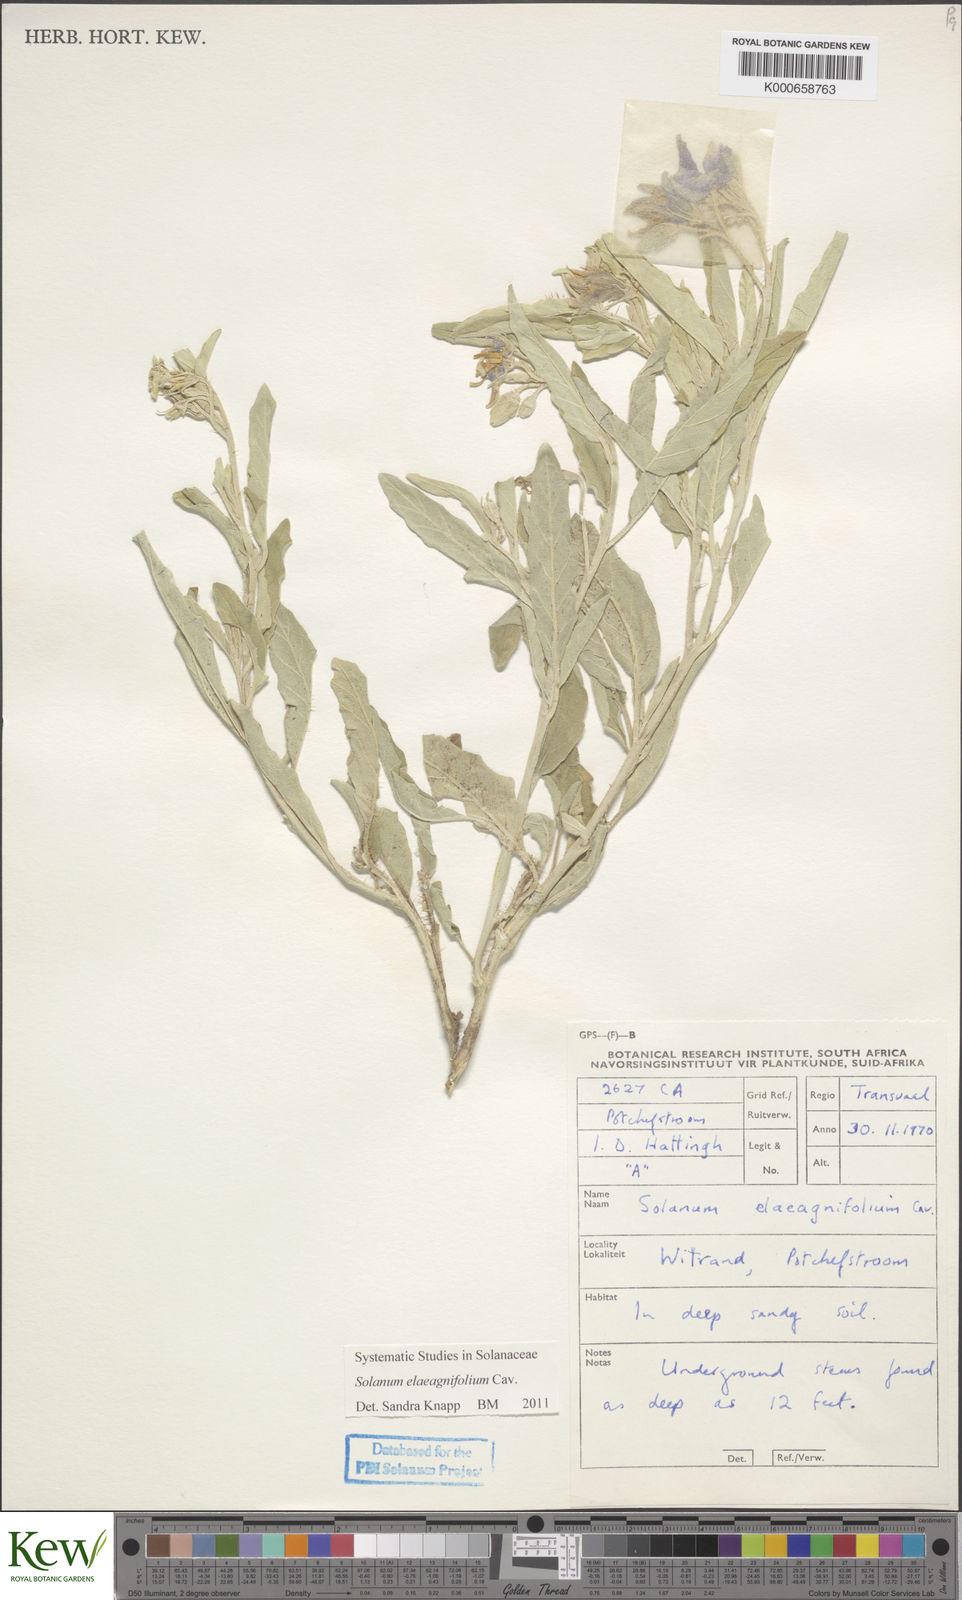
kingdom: Plantae
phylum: Tracheophyta
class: Magnoliopsida
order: Solanales
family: Solanaceae
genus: Solanum
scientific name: Solanum elaeagnifolium
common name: Silverleaf nightshade
